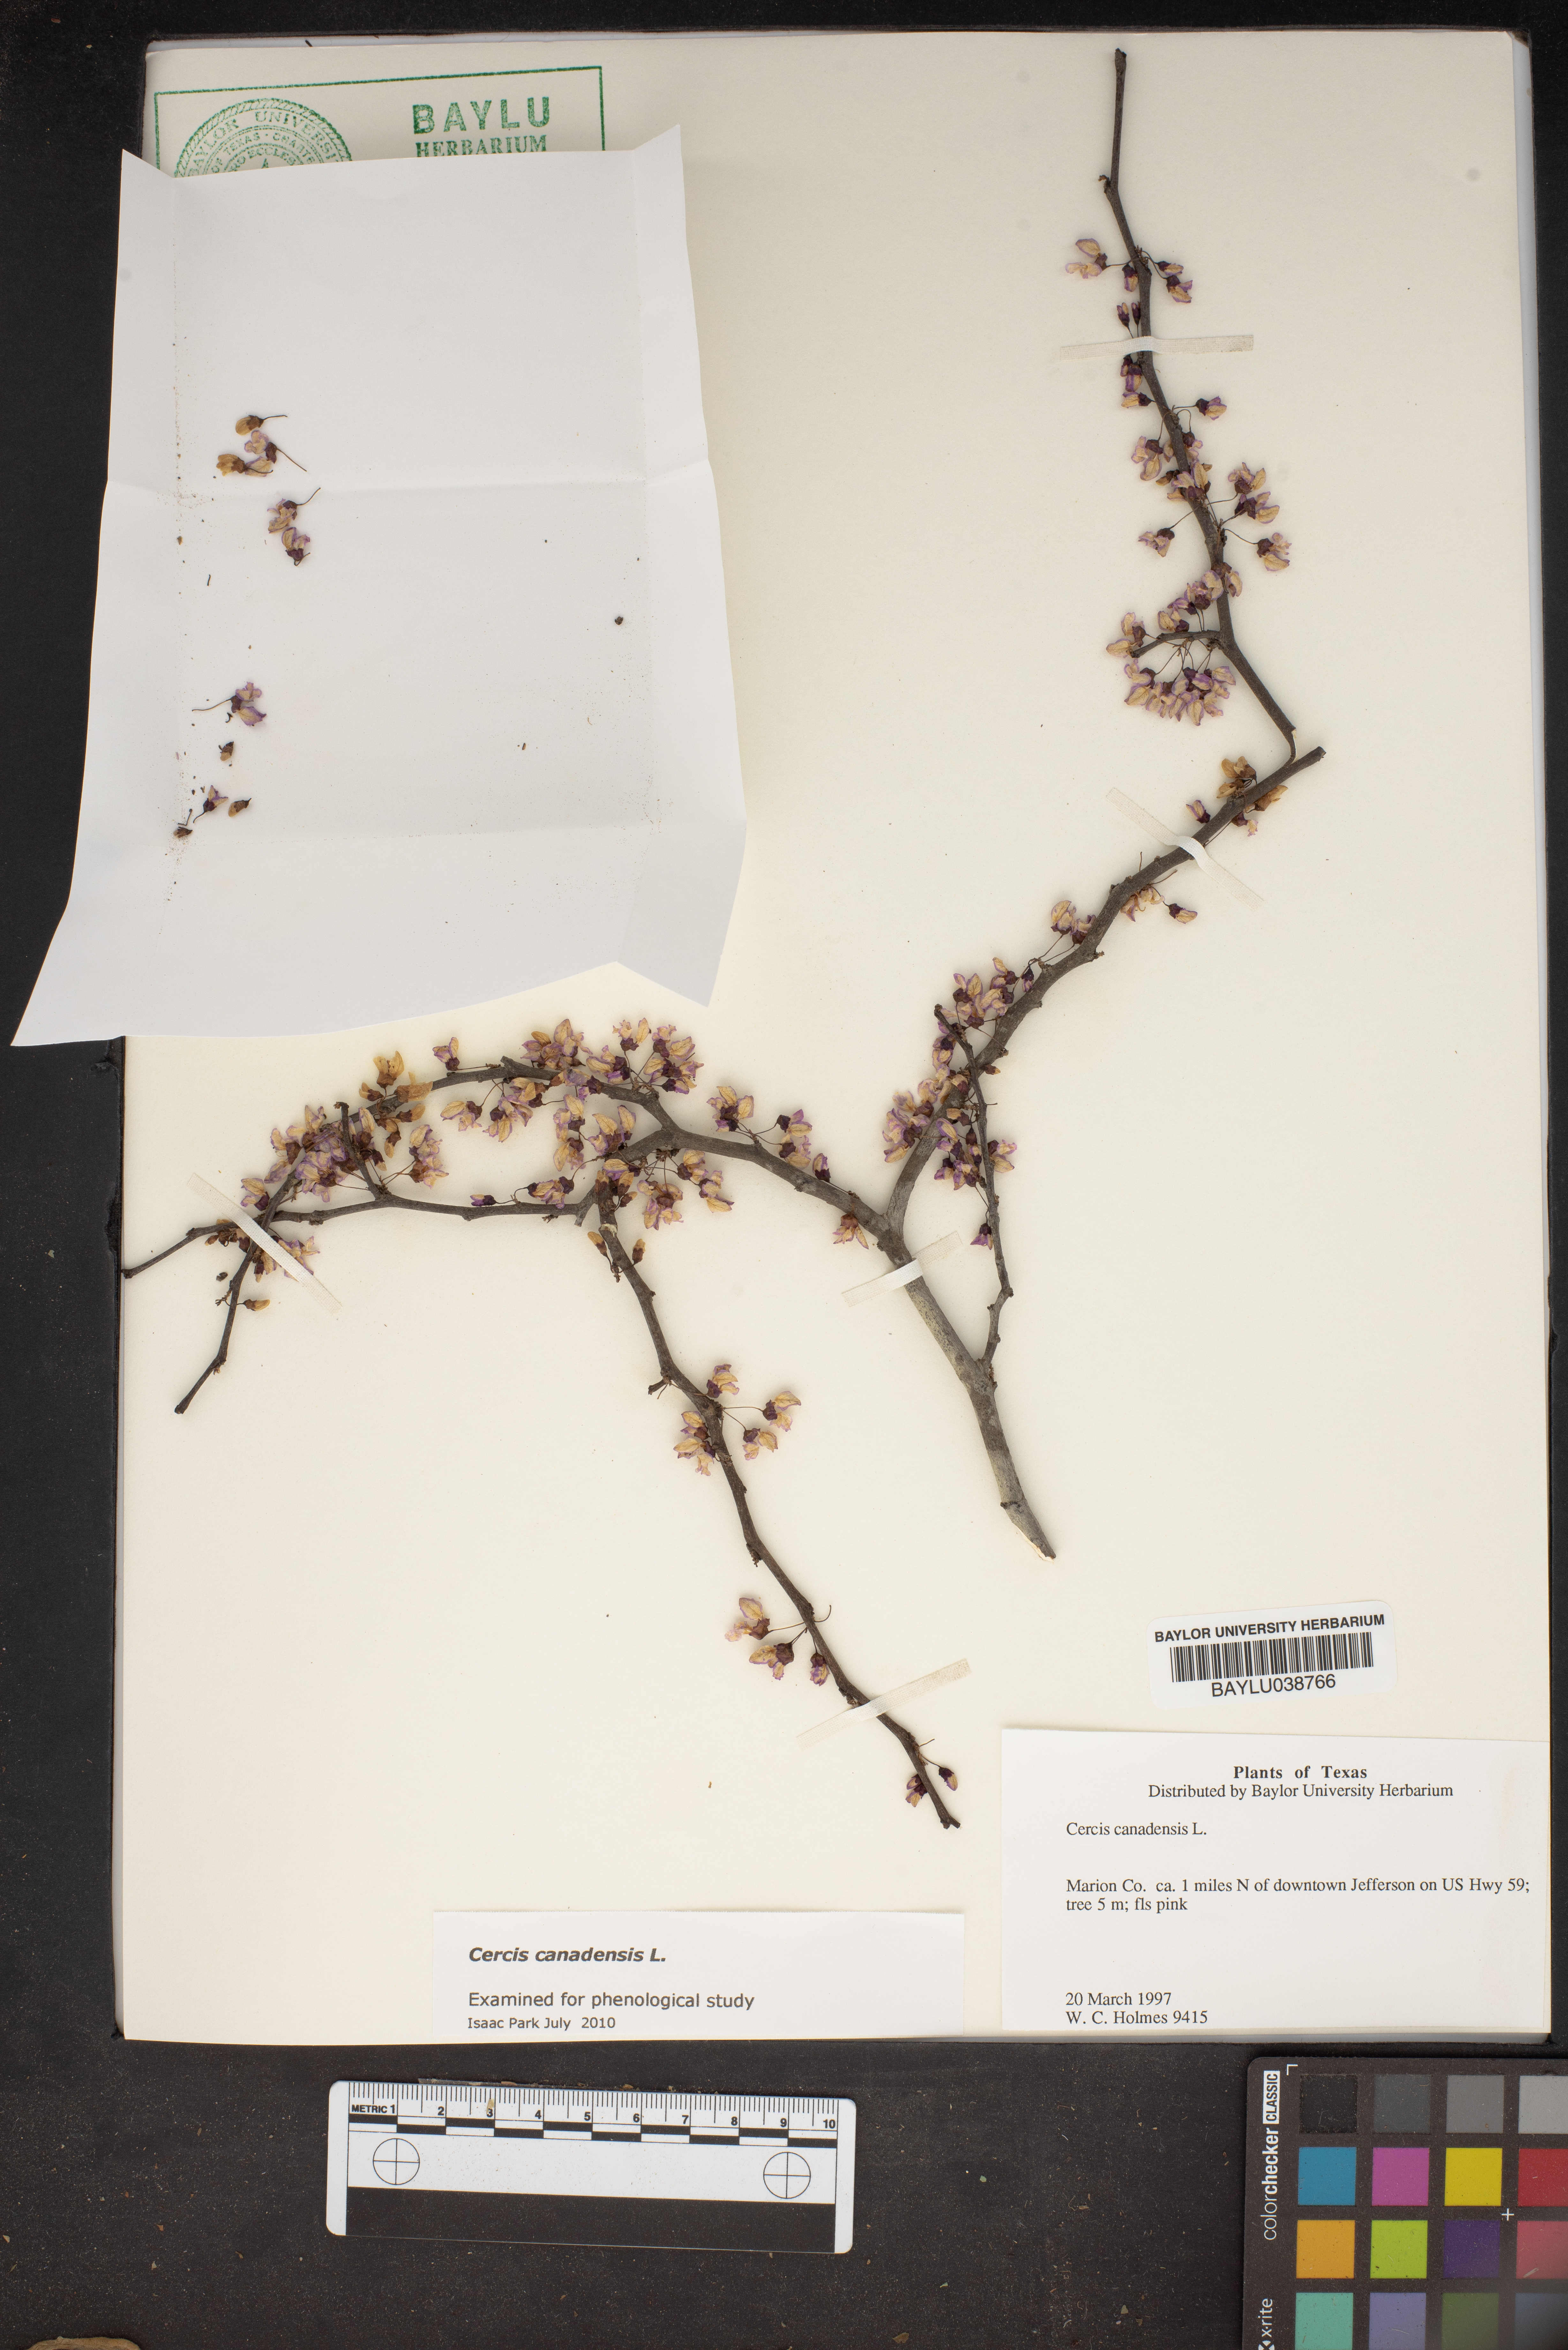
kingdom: Plantae
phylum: Tracheophyta
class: Magnoliopsida
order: Fabales
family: Fabaceae
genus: Cercis
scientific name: Cercis canadensis
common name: Eastern redbud
